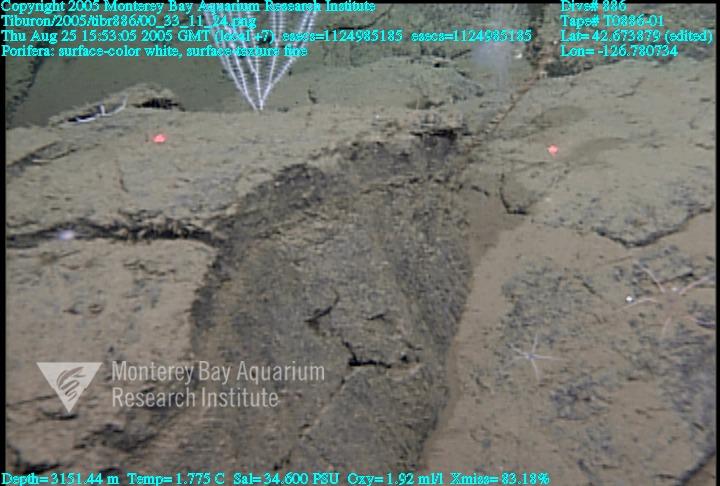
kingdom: Animalia
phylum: Porifera
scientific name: Porifera
